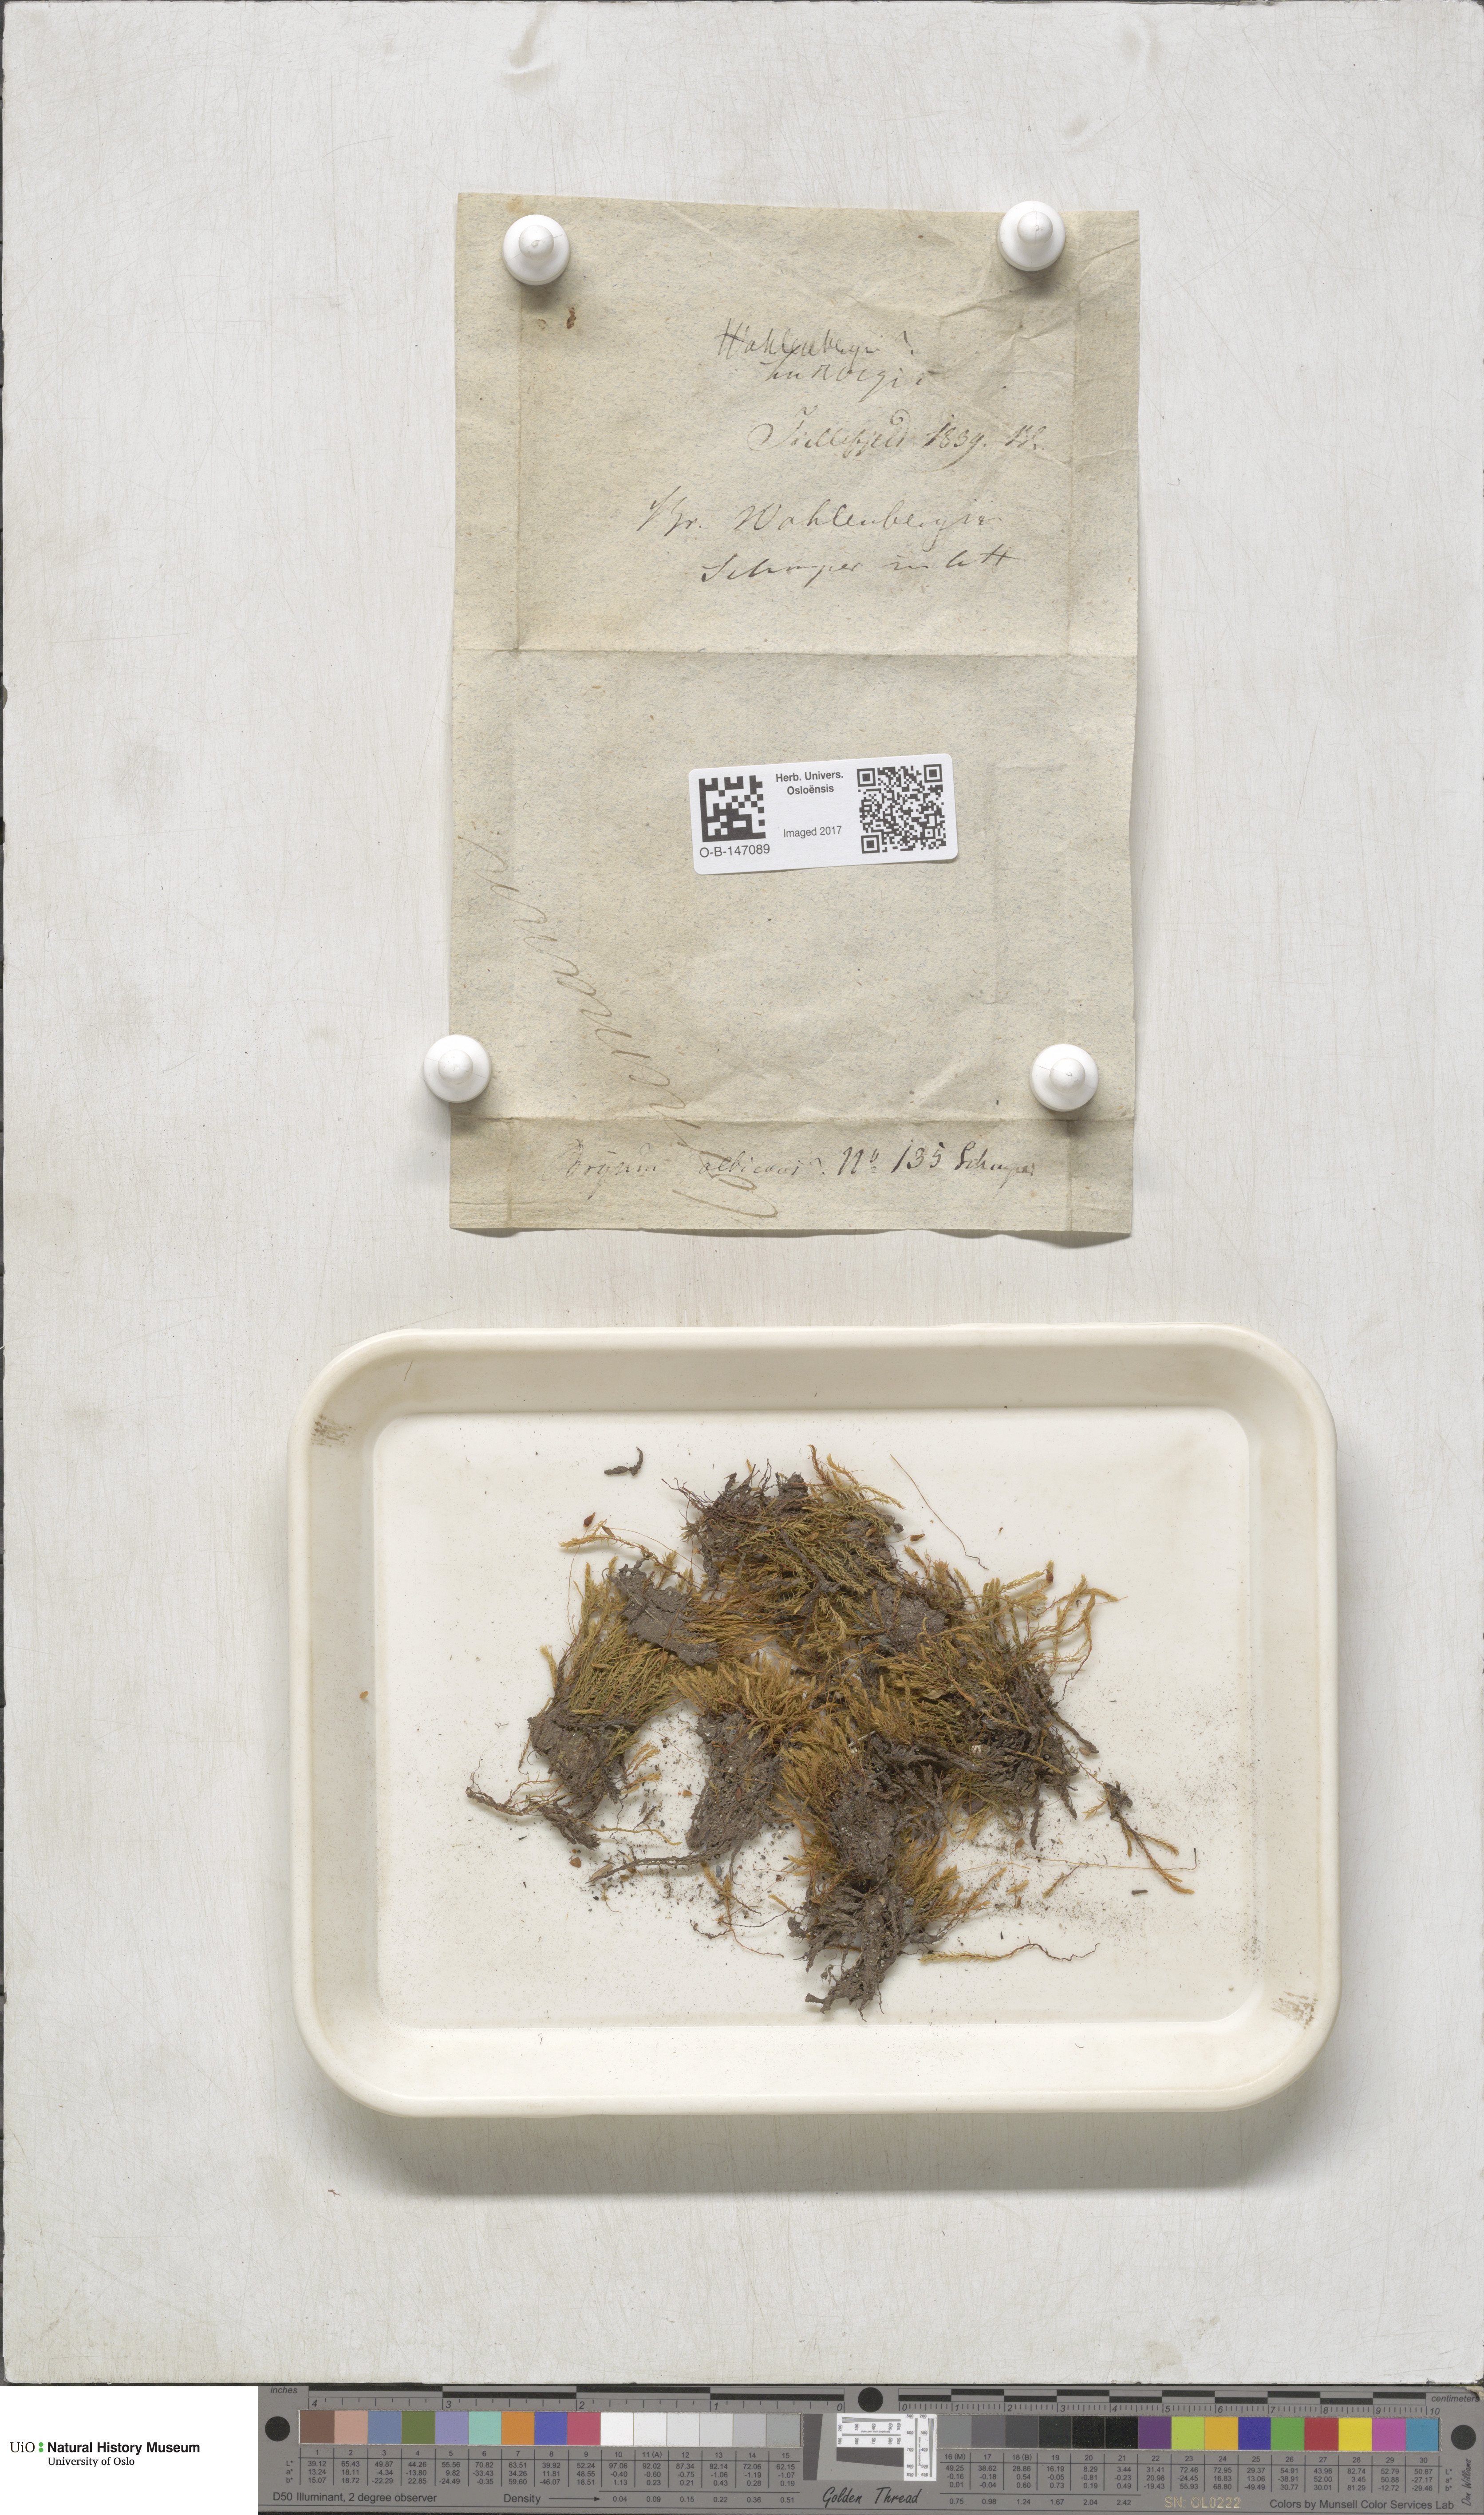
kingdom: Plantae
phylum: Bryophyta
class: Bryopsida
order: Bryales
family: Mniaceae
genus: Pohlia
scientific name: Pohlia wahlenbergii
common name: Wahlenberg's nodding moss
